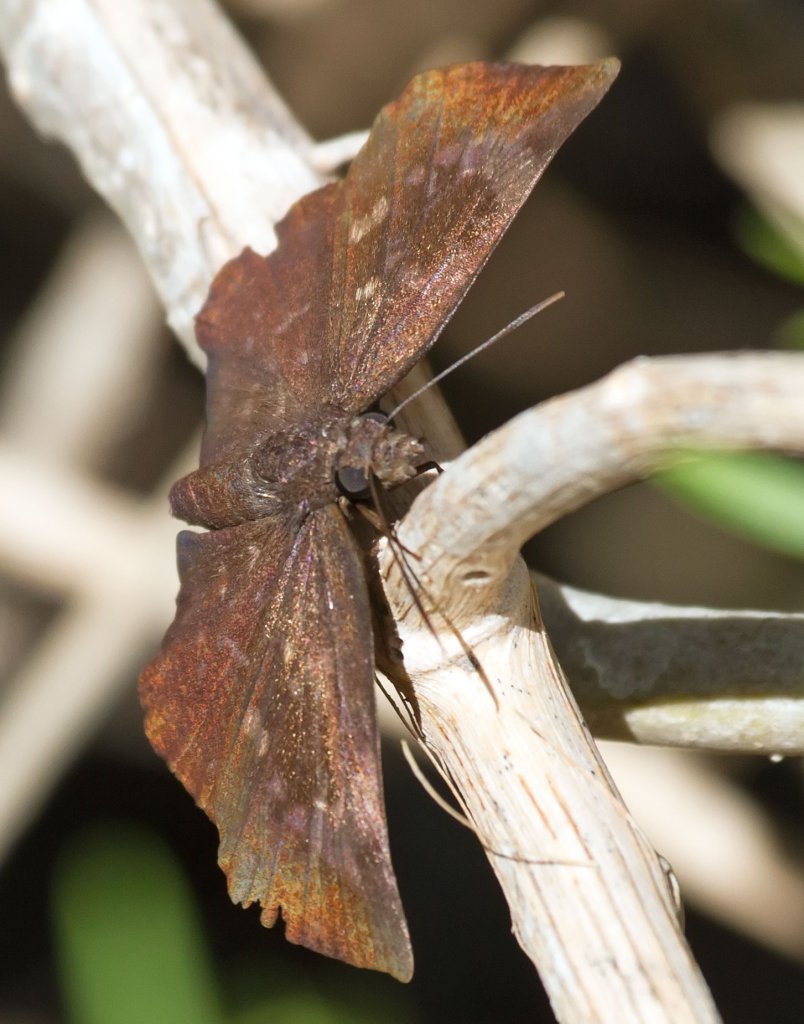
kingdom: Animalia
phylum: Arthropoda
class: Insecta
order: Lepidoptera
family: Hesperiidae
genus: Achlyodes
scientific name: Achlyodes thraso
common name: Sickle-winged Skipper
